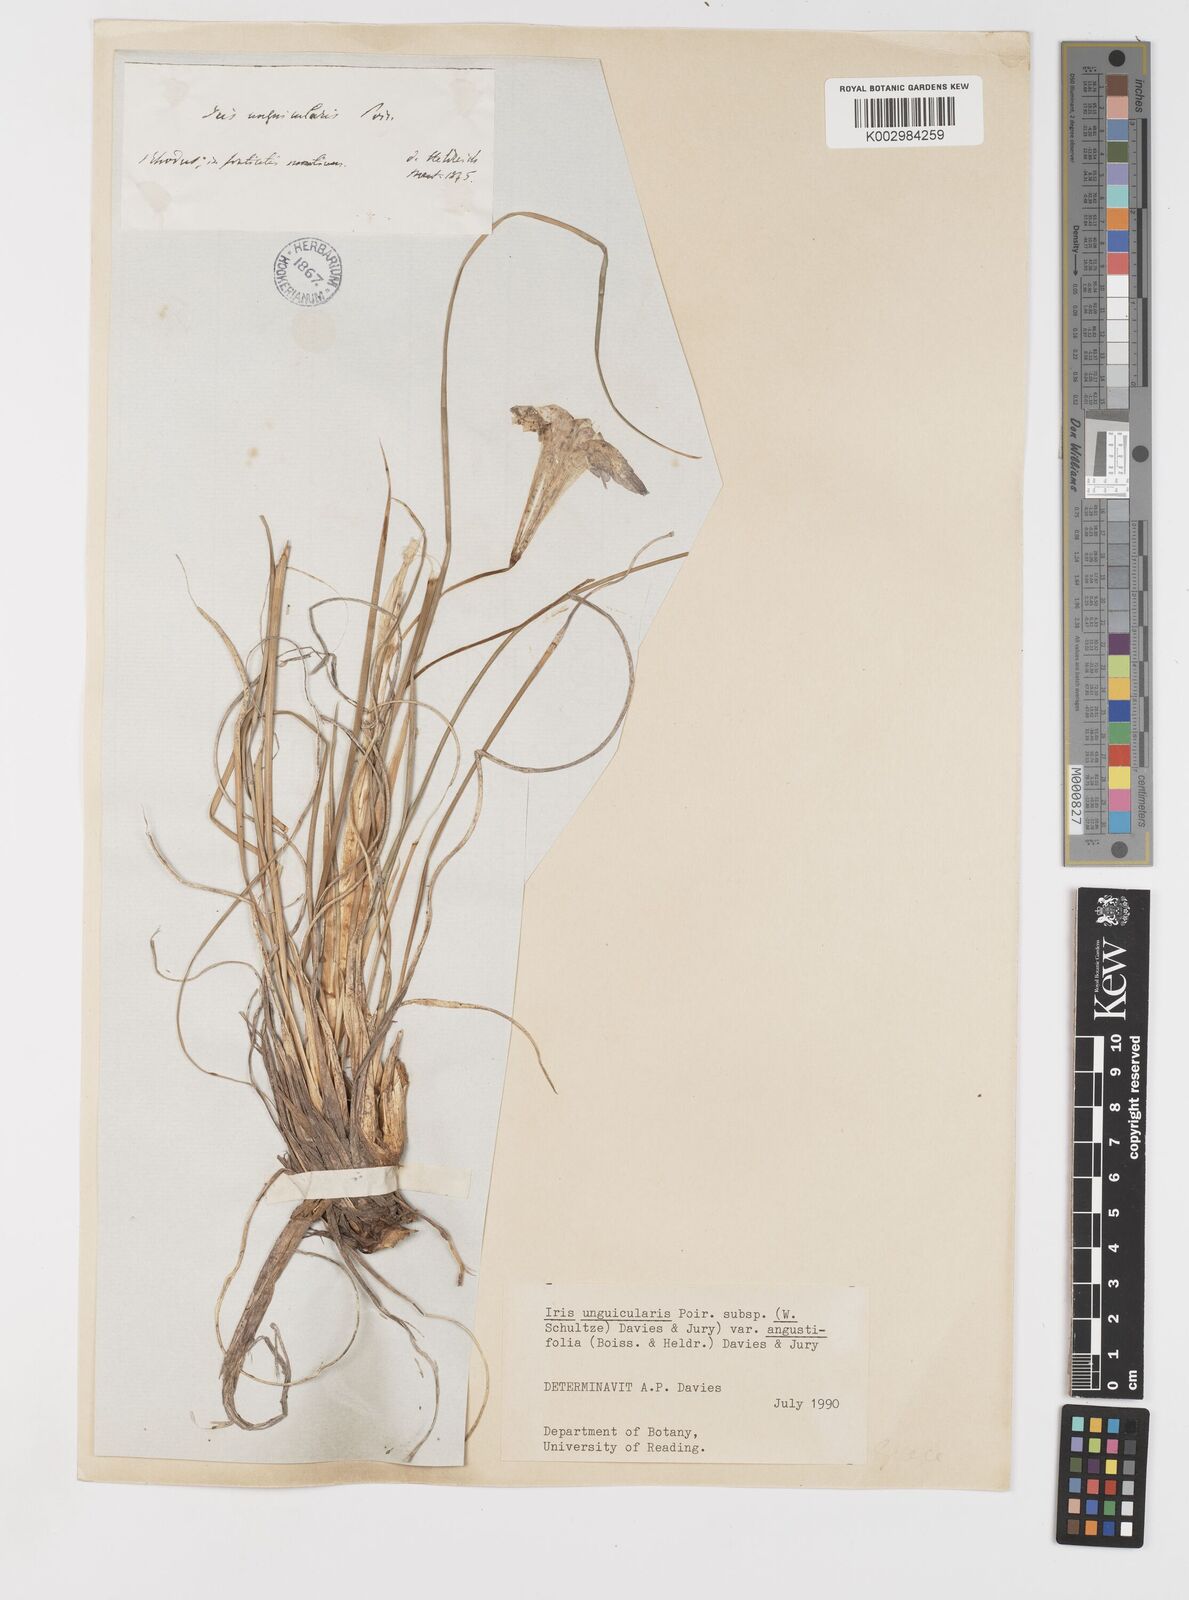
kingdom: Plantae
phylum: Tracheophyta
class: Liliopsida
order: Asparagales
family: Iridaceae
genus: Iris
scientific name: Iris unguicularis
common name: Algerian iris
